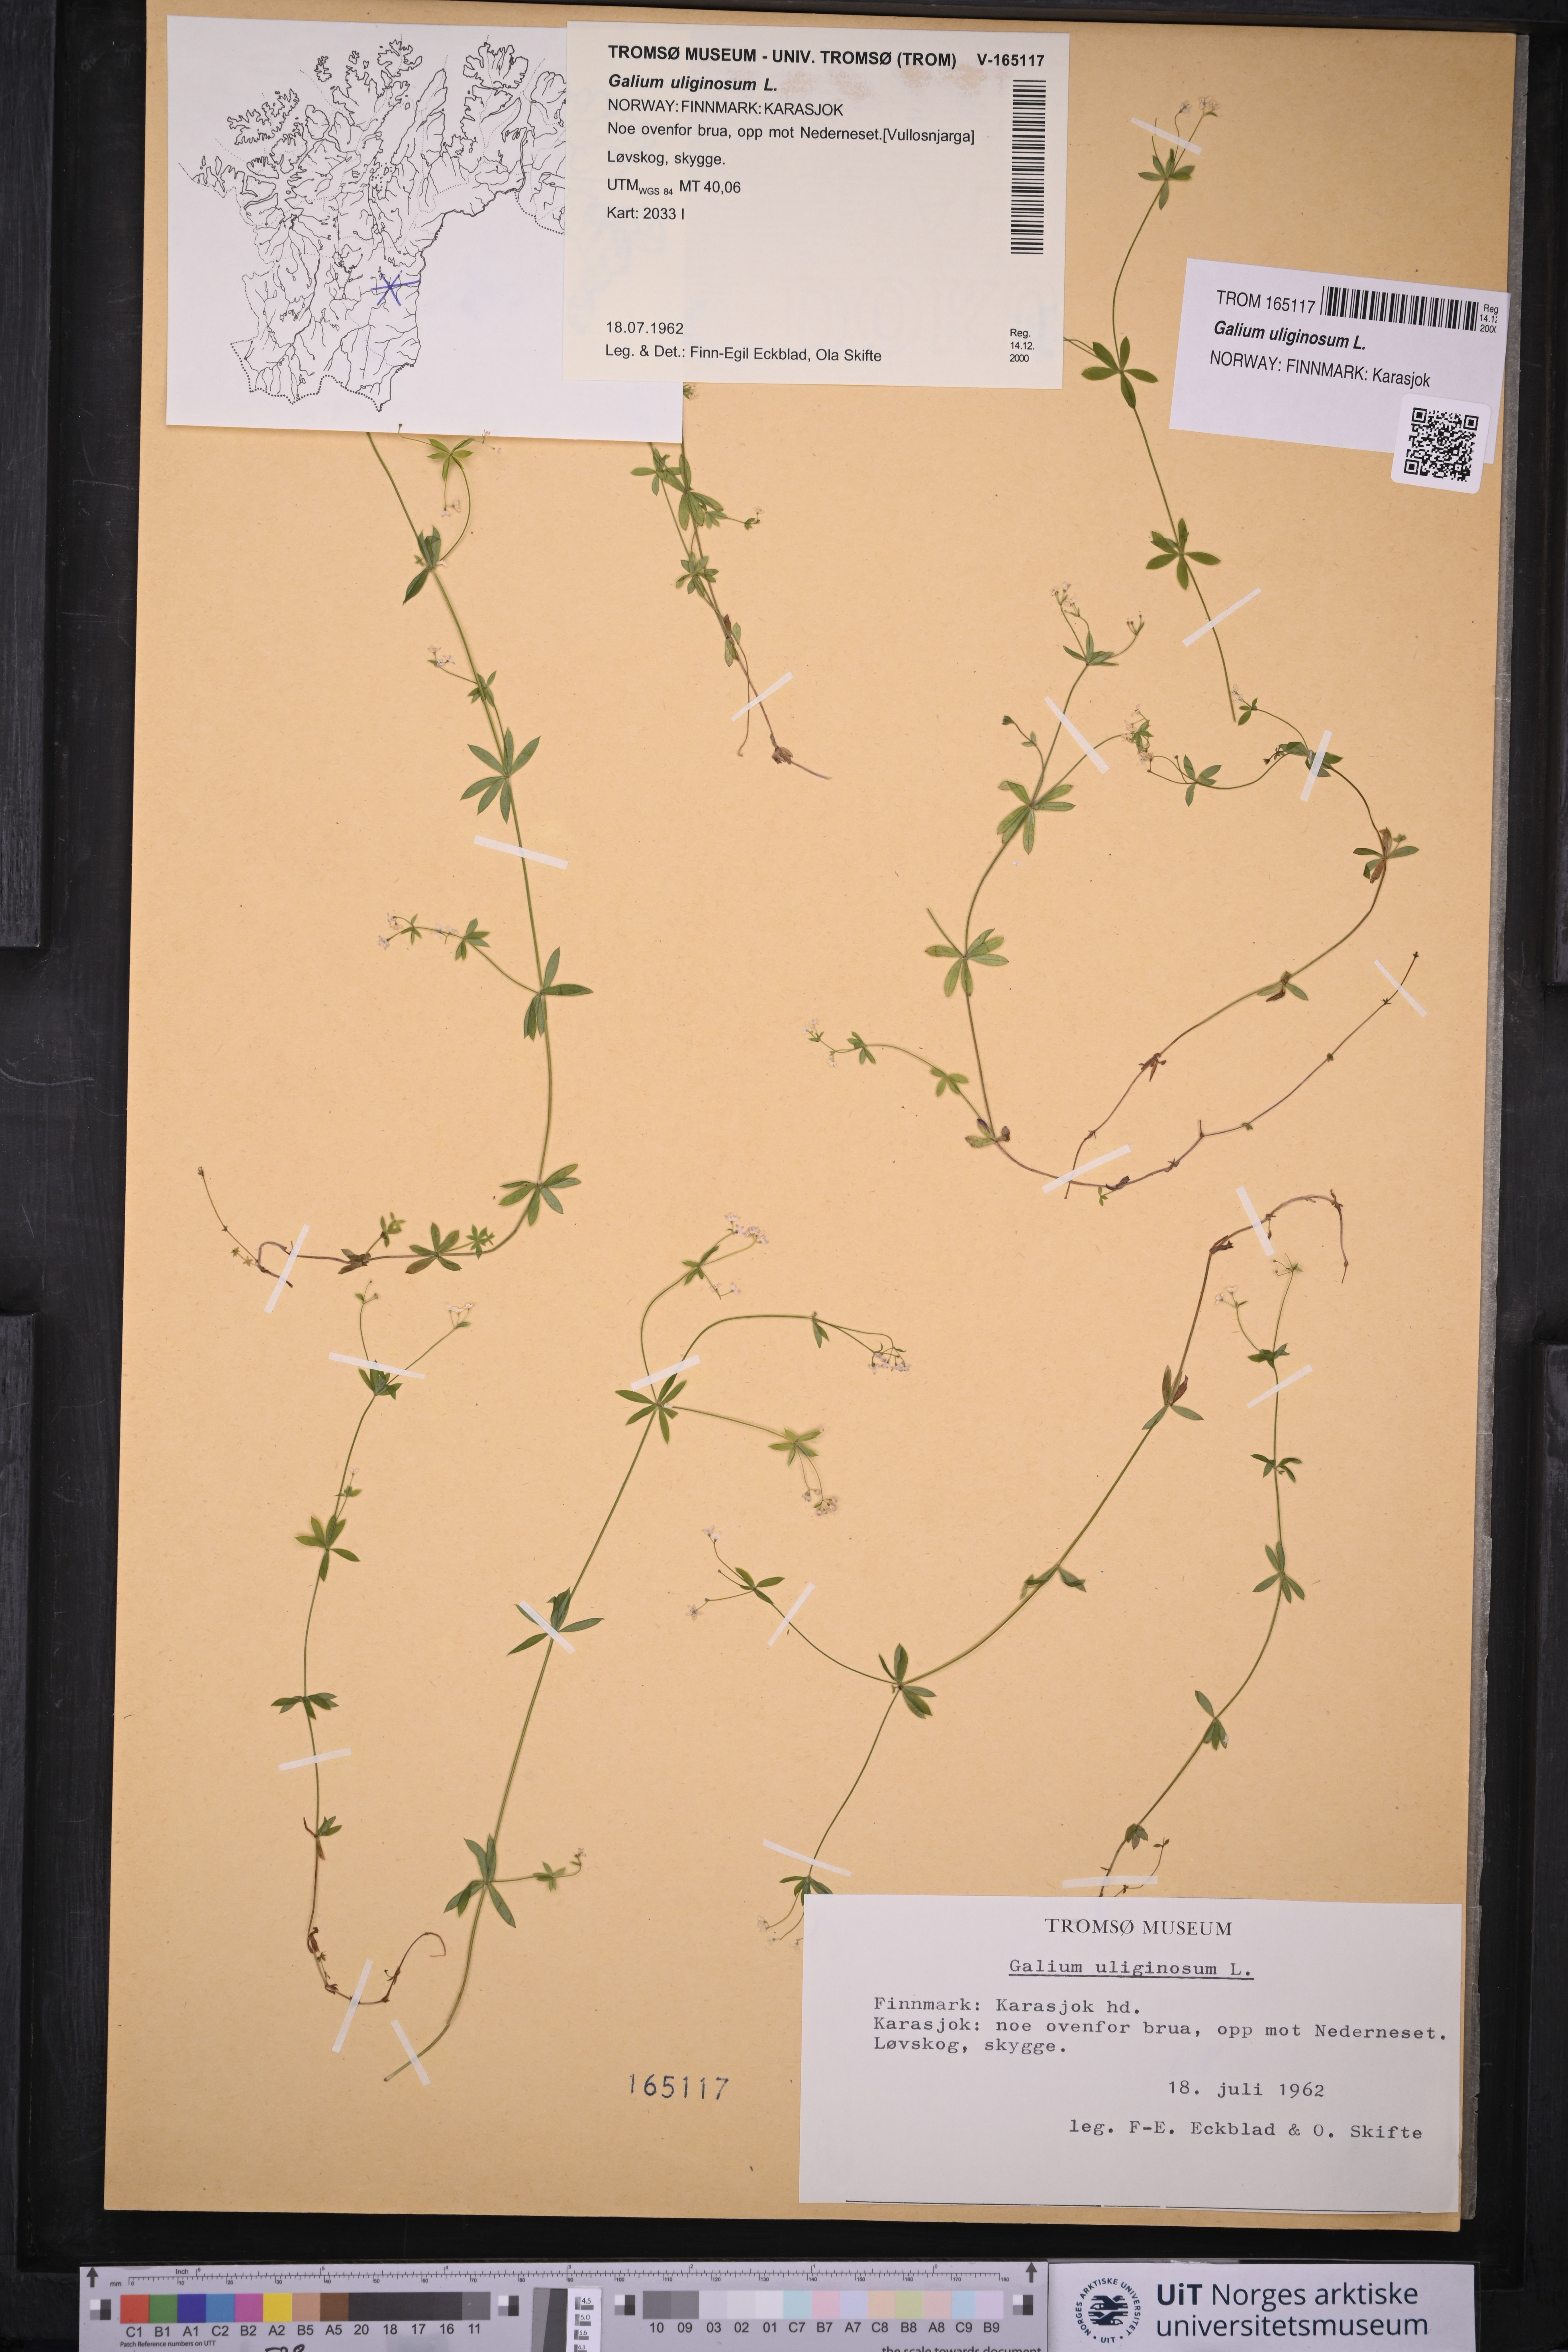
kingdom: Plantae
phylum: Tracheophyta
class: Magnoliopsida
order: Gentianales
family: Rubiaceae
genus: Galium
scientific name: Galium uliginosum
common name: Fen bedstraw
